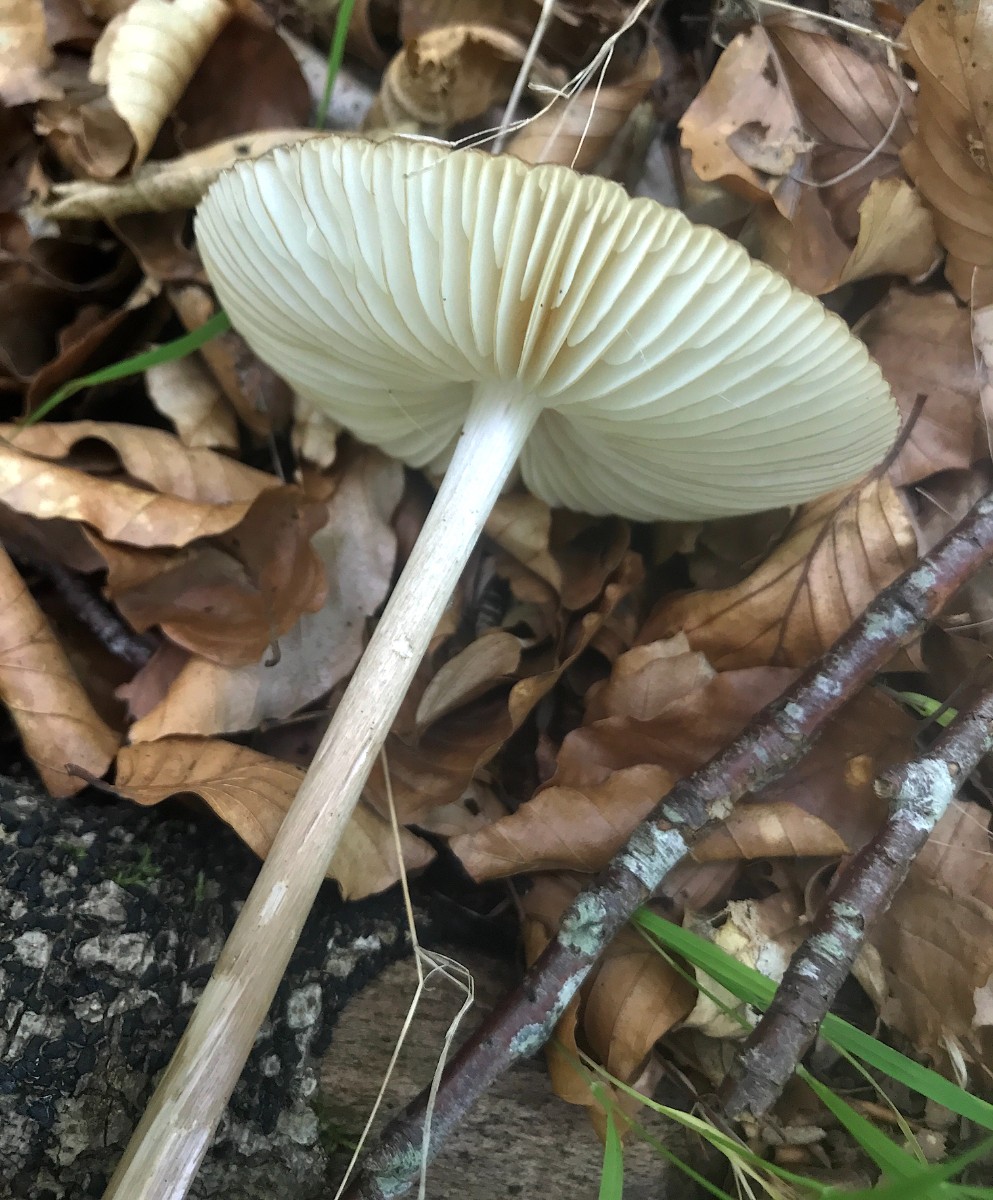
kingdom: Fungi
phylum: Basidiomycota
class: Agaricomycetes
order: Agaricales
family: Physalacriaceae
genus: Hymenopellis
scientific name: Hymenopellis radicata
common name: almindelig pælerodshat
